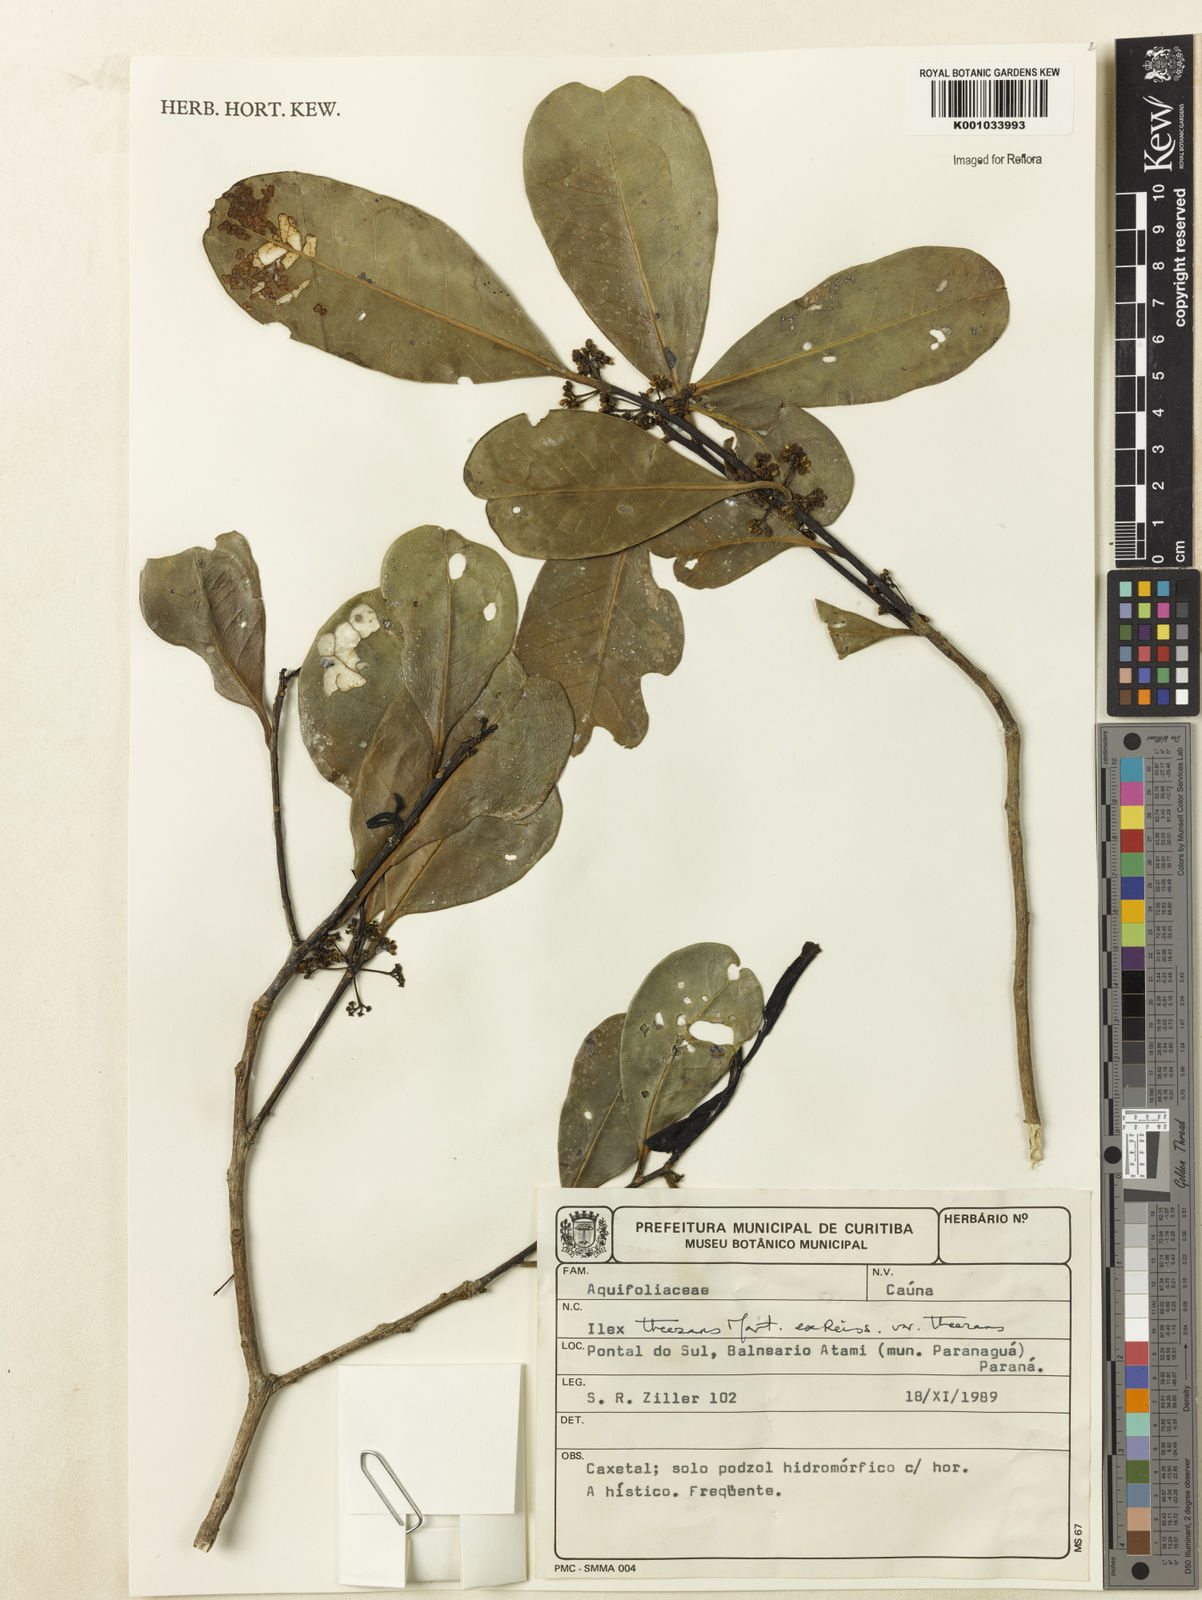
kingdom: Plantae
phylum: Tracheophyta
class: Magnoliopsida
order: Aquifoliales
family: Aquifoliaceae
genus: Ilex
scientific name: Ilex
